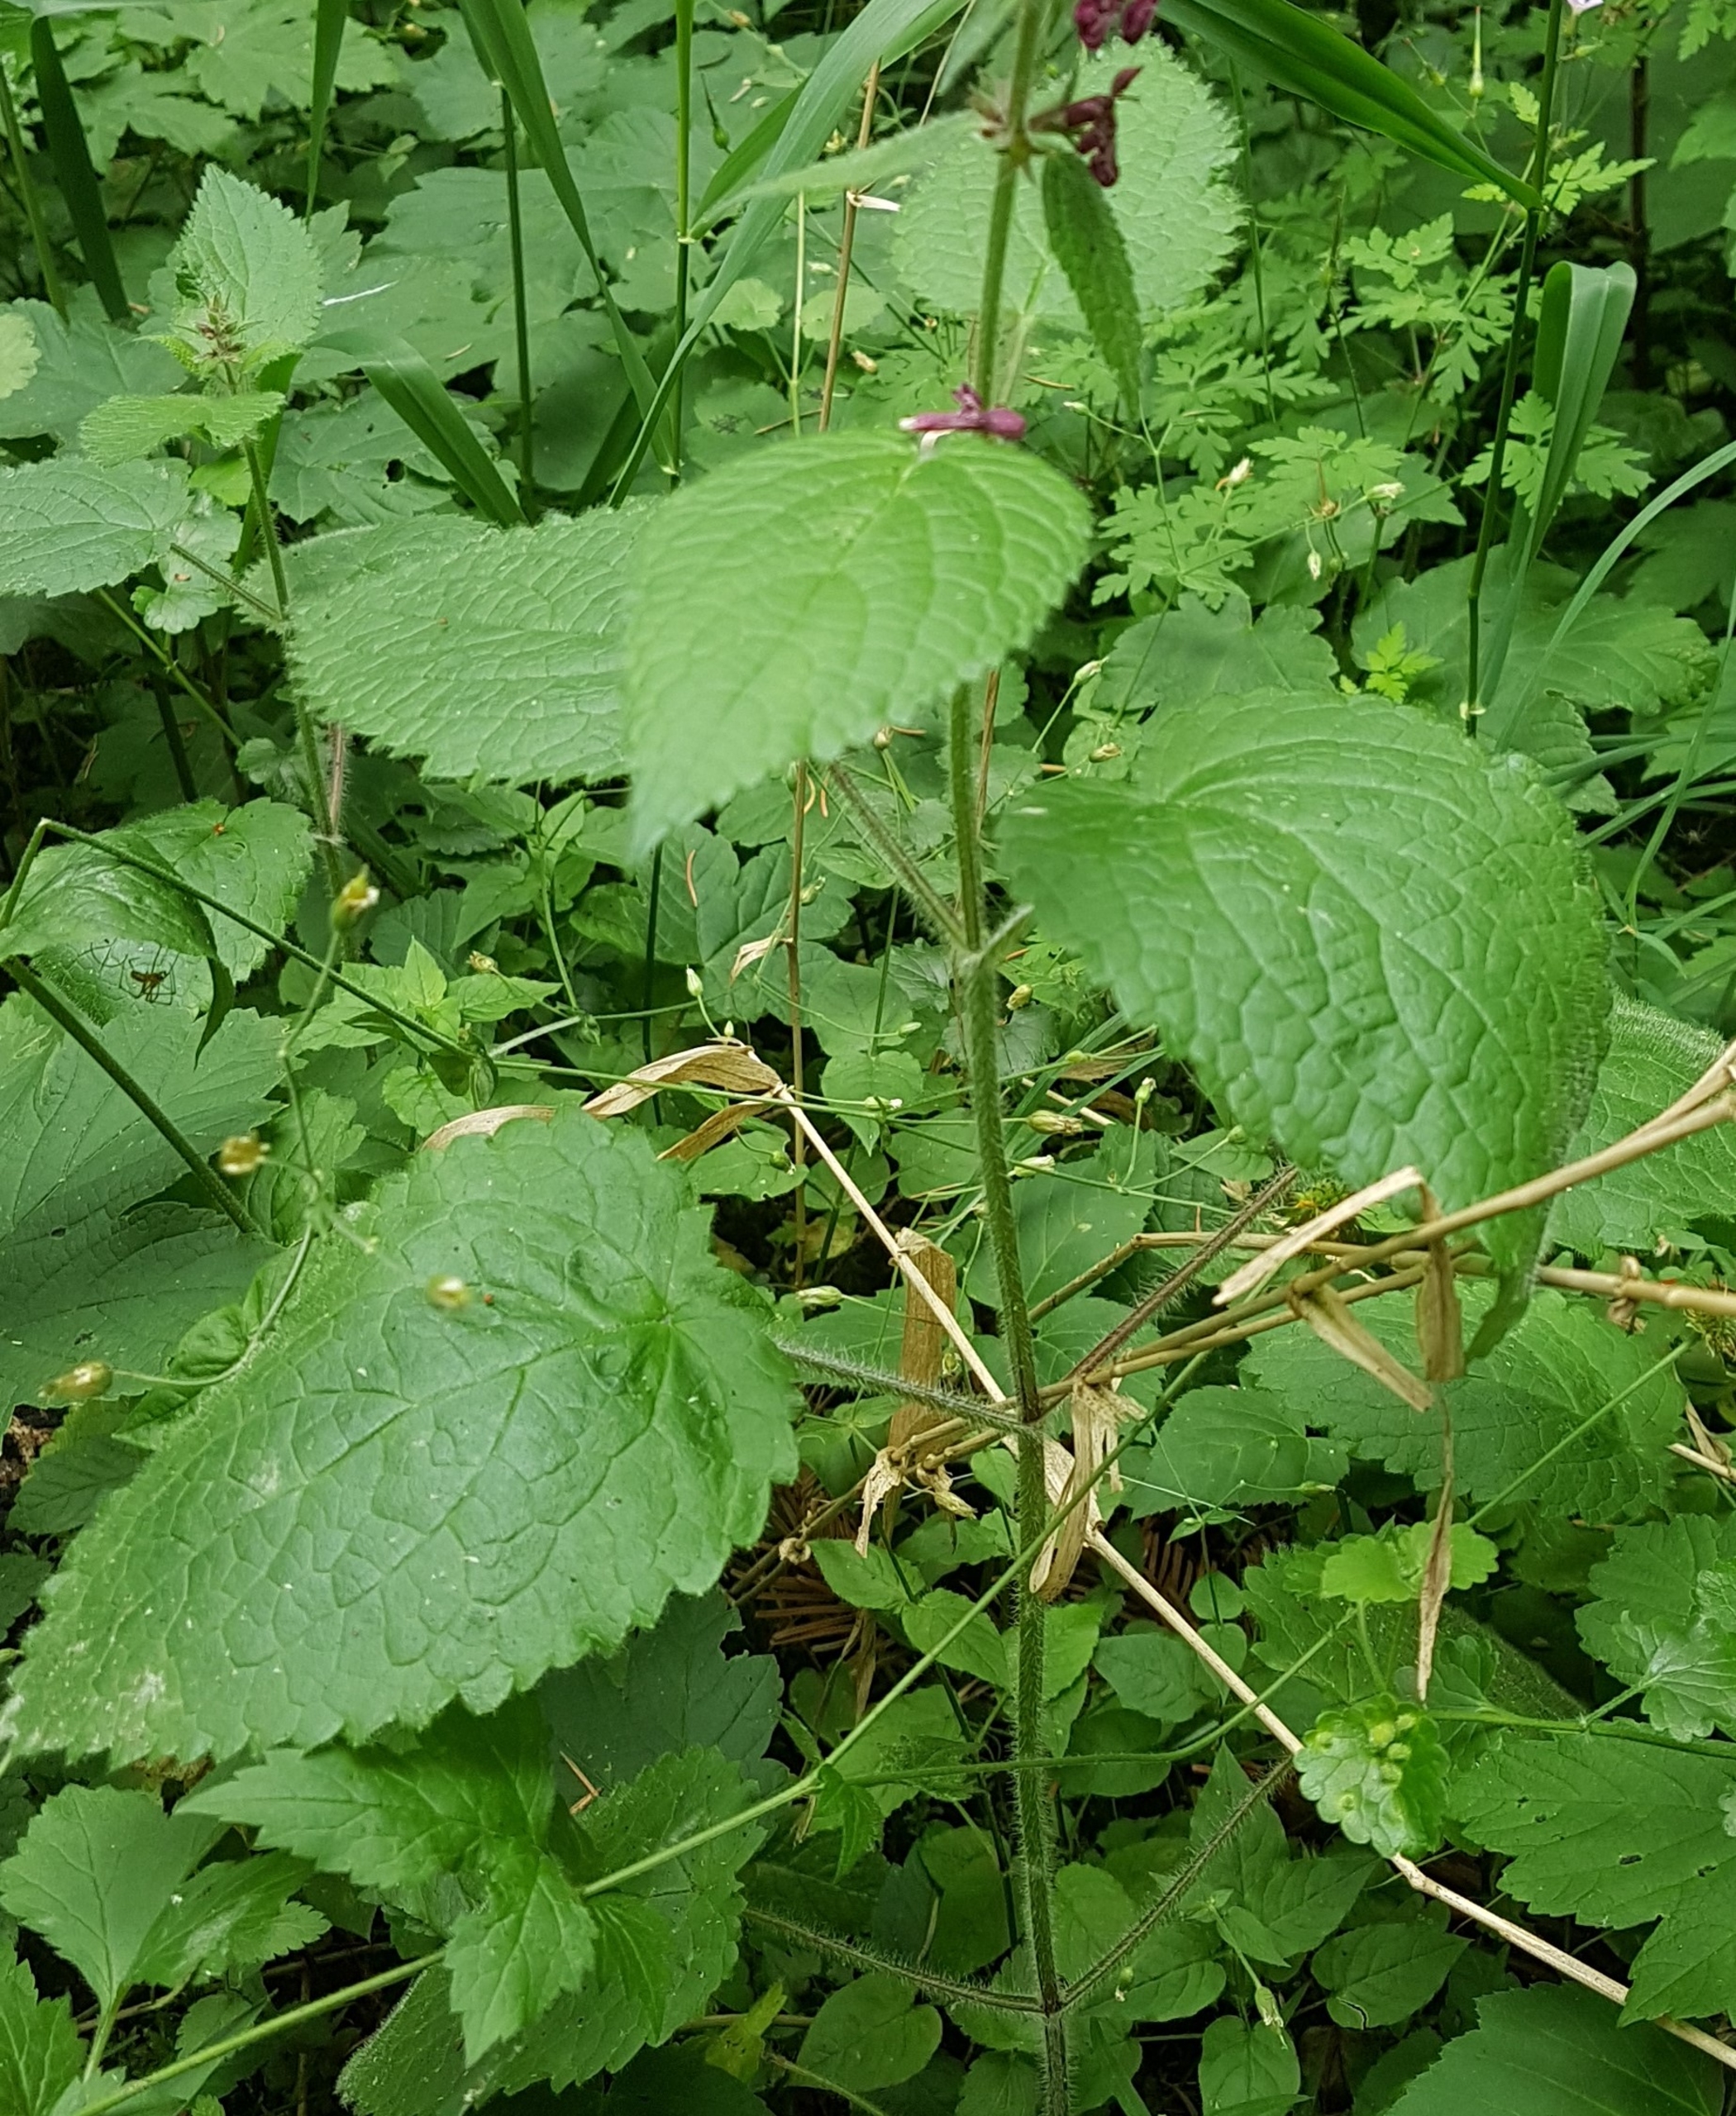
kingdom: Plantae
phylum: Tracheophyta
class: Magnoliopsida
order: Lamiales
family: Lamiaceae
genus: Stachys
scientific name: Stachys sylvatica
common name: Skov-galtetand
